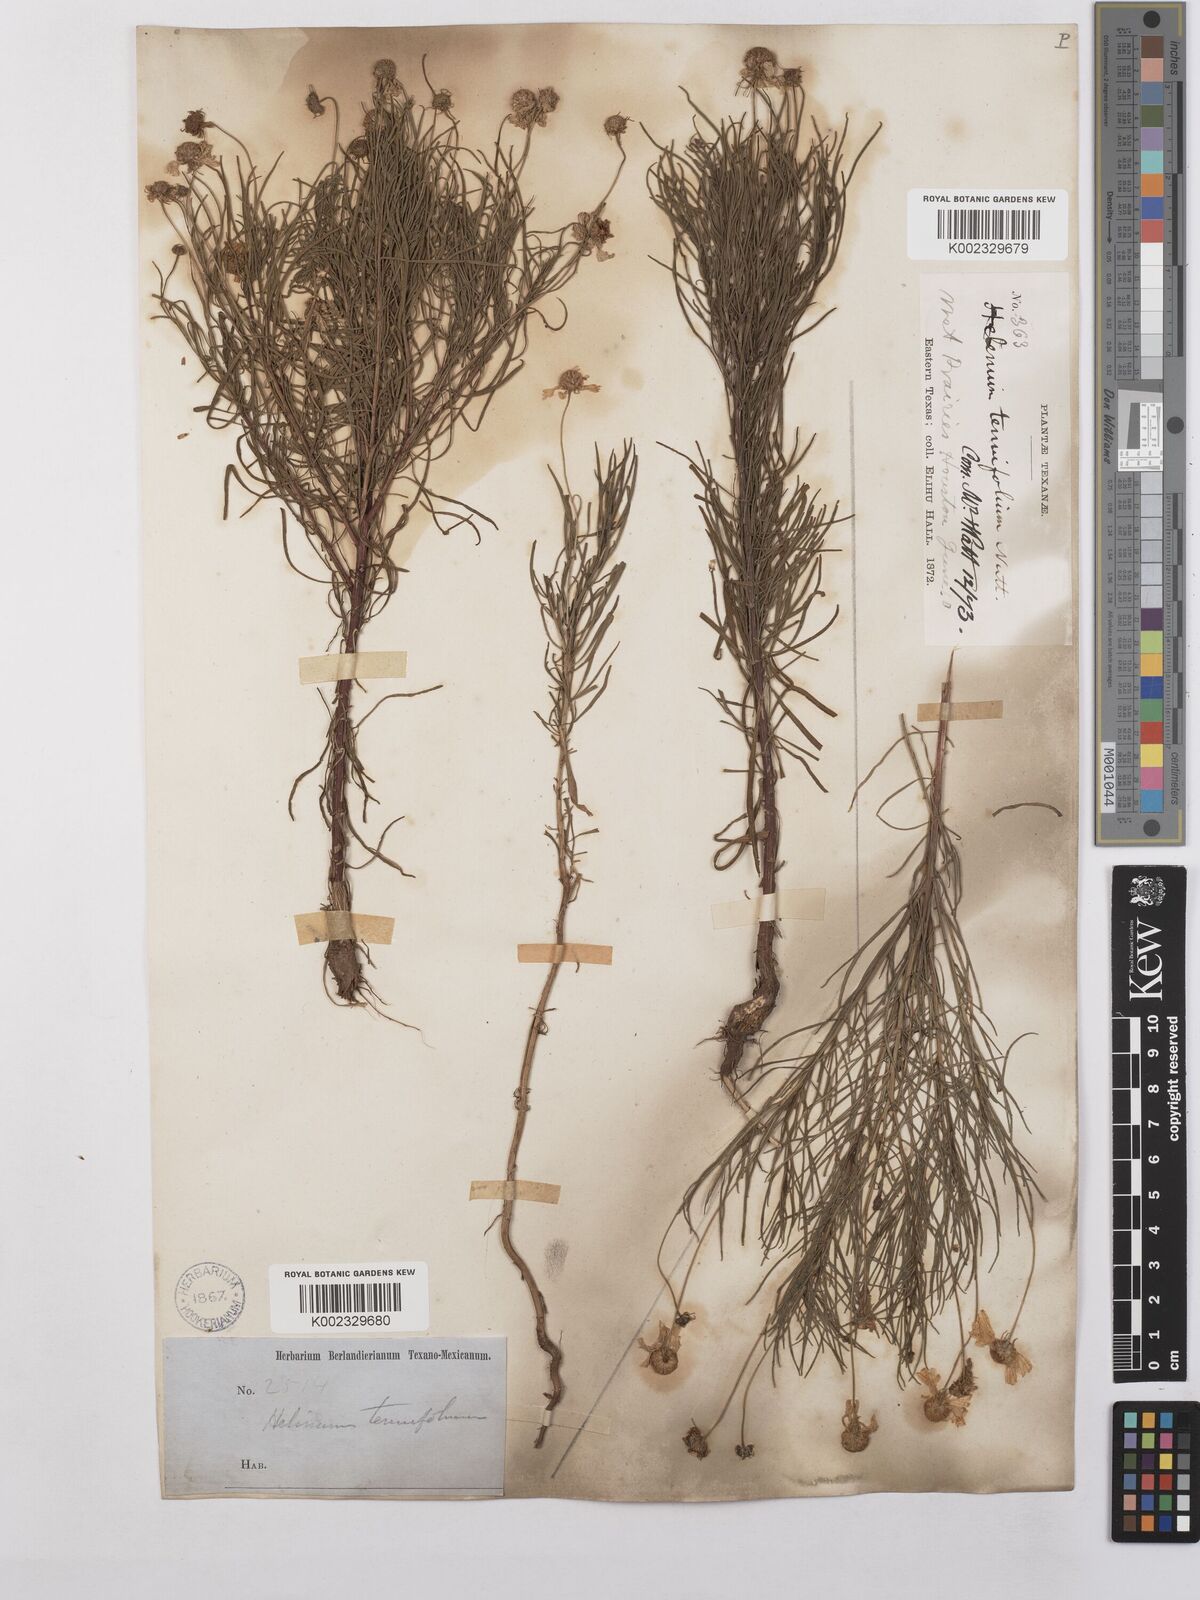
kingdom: Plantae
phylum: Tracheophyta
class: Magnoliopsida
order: Asterales
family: Asteraceae
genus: Helenium
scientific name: Helenium amarum
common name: Bitter sneezeweed
